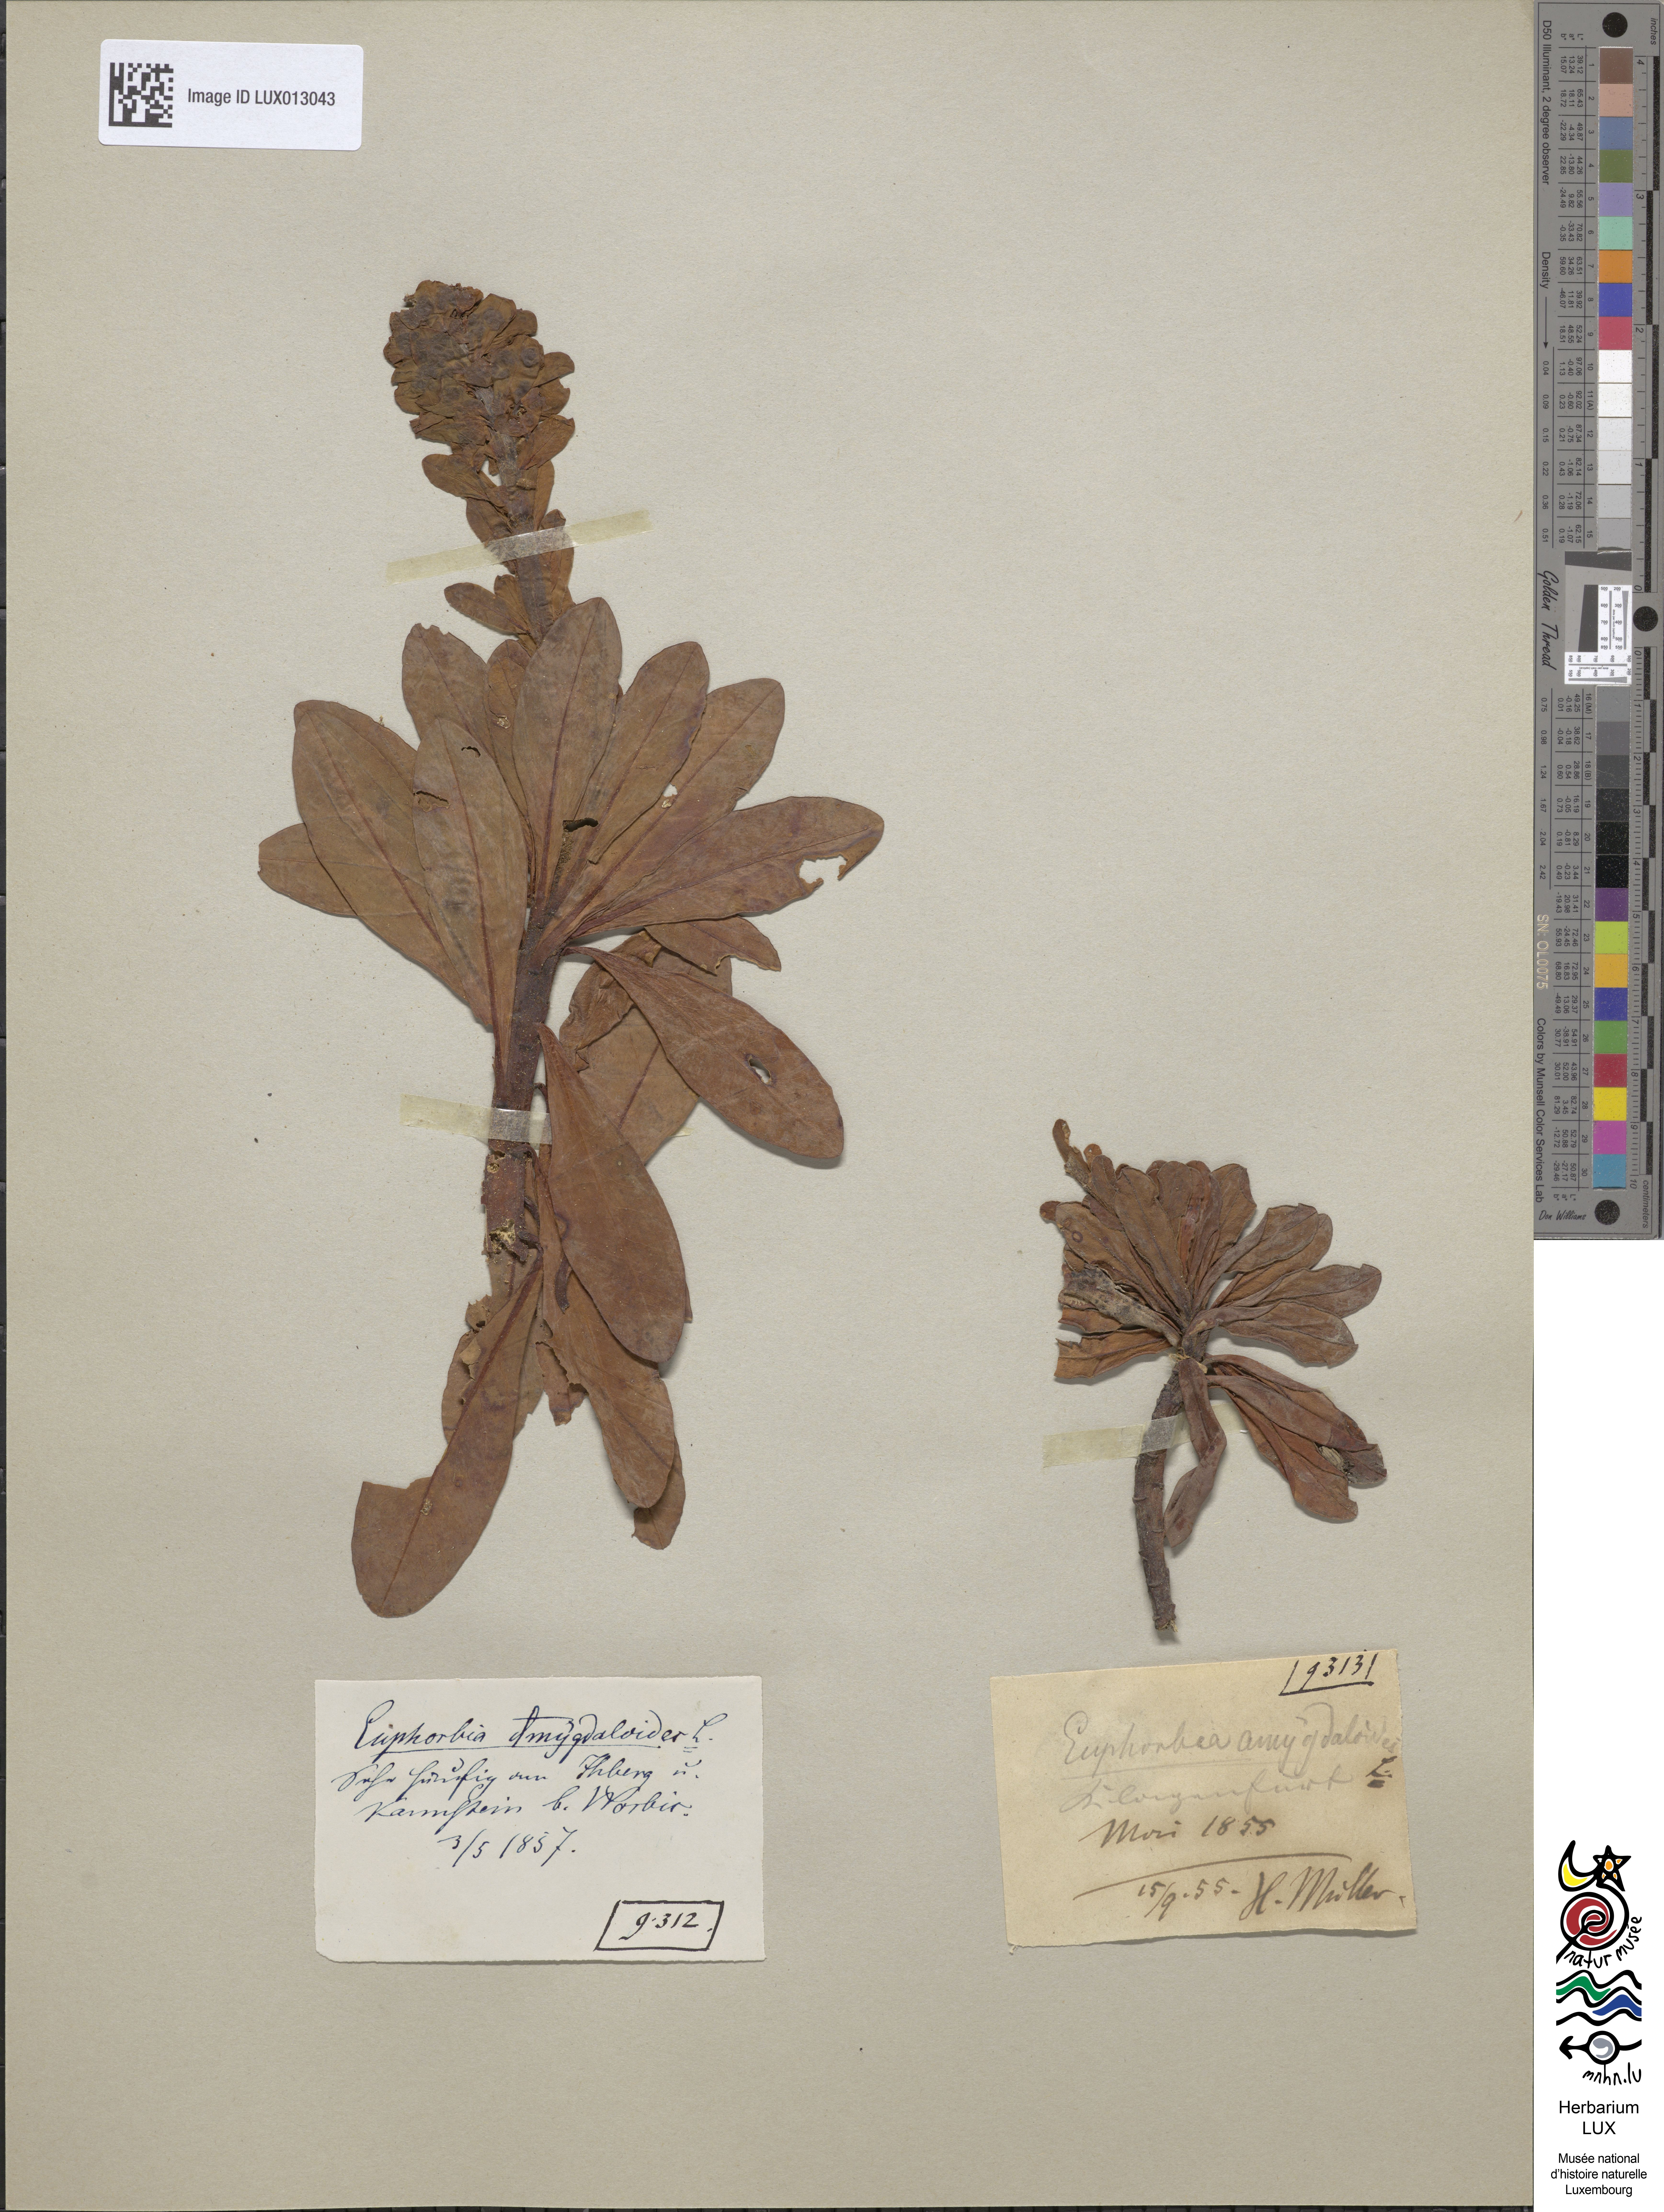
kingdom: Plantae
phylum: Tracheophyta
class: Magnoliopsida
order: Malpighiales
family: Euphorbiaceae
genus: Euphorbia
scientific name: Euphorbia amygdaloides
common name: Wood spurge
